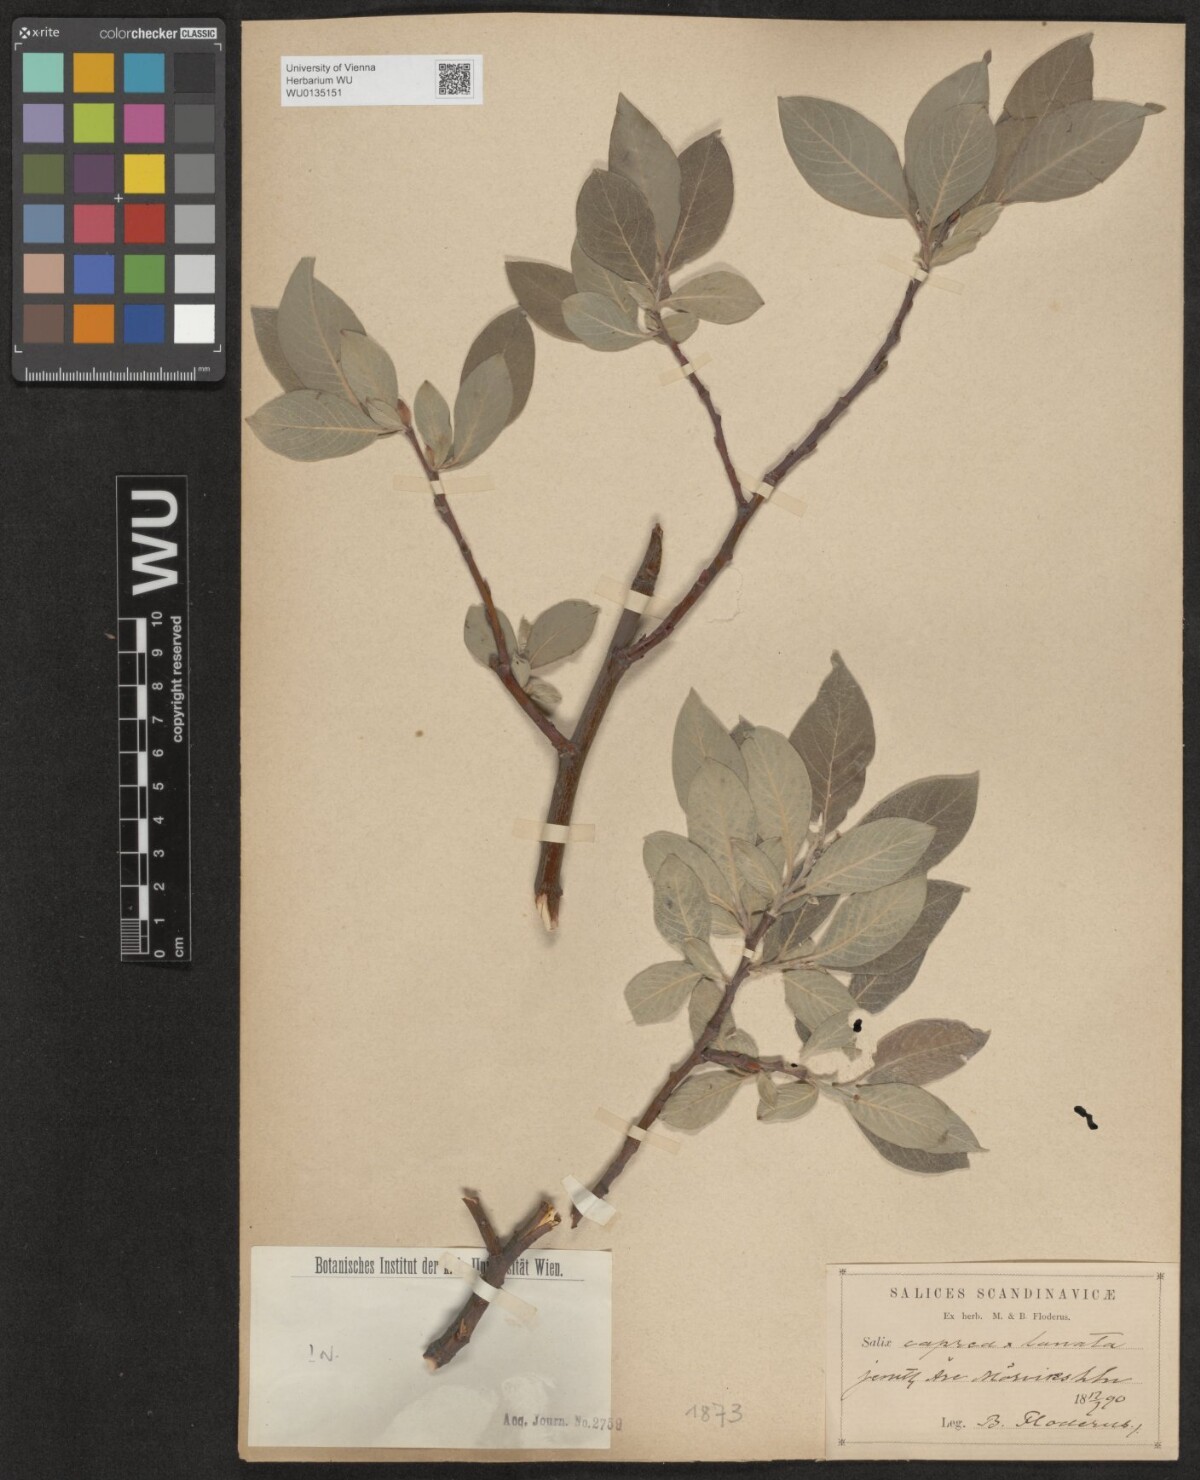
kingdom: Plantae
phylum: Tracheophyta
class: Magnoliopsida
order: Malpighiales
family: Salicaceae
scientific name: Salicaceae
